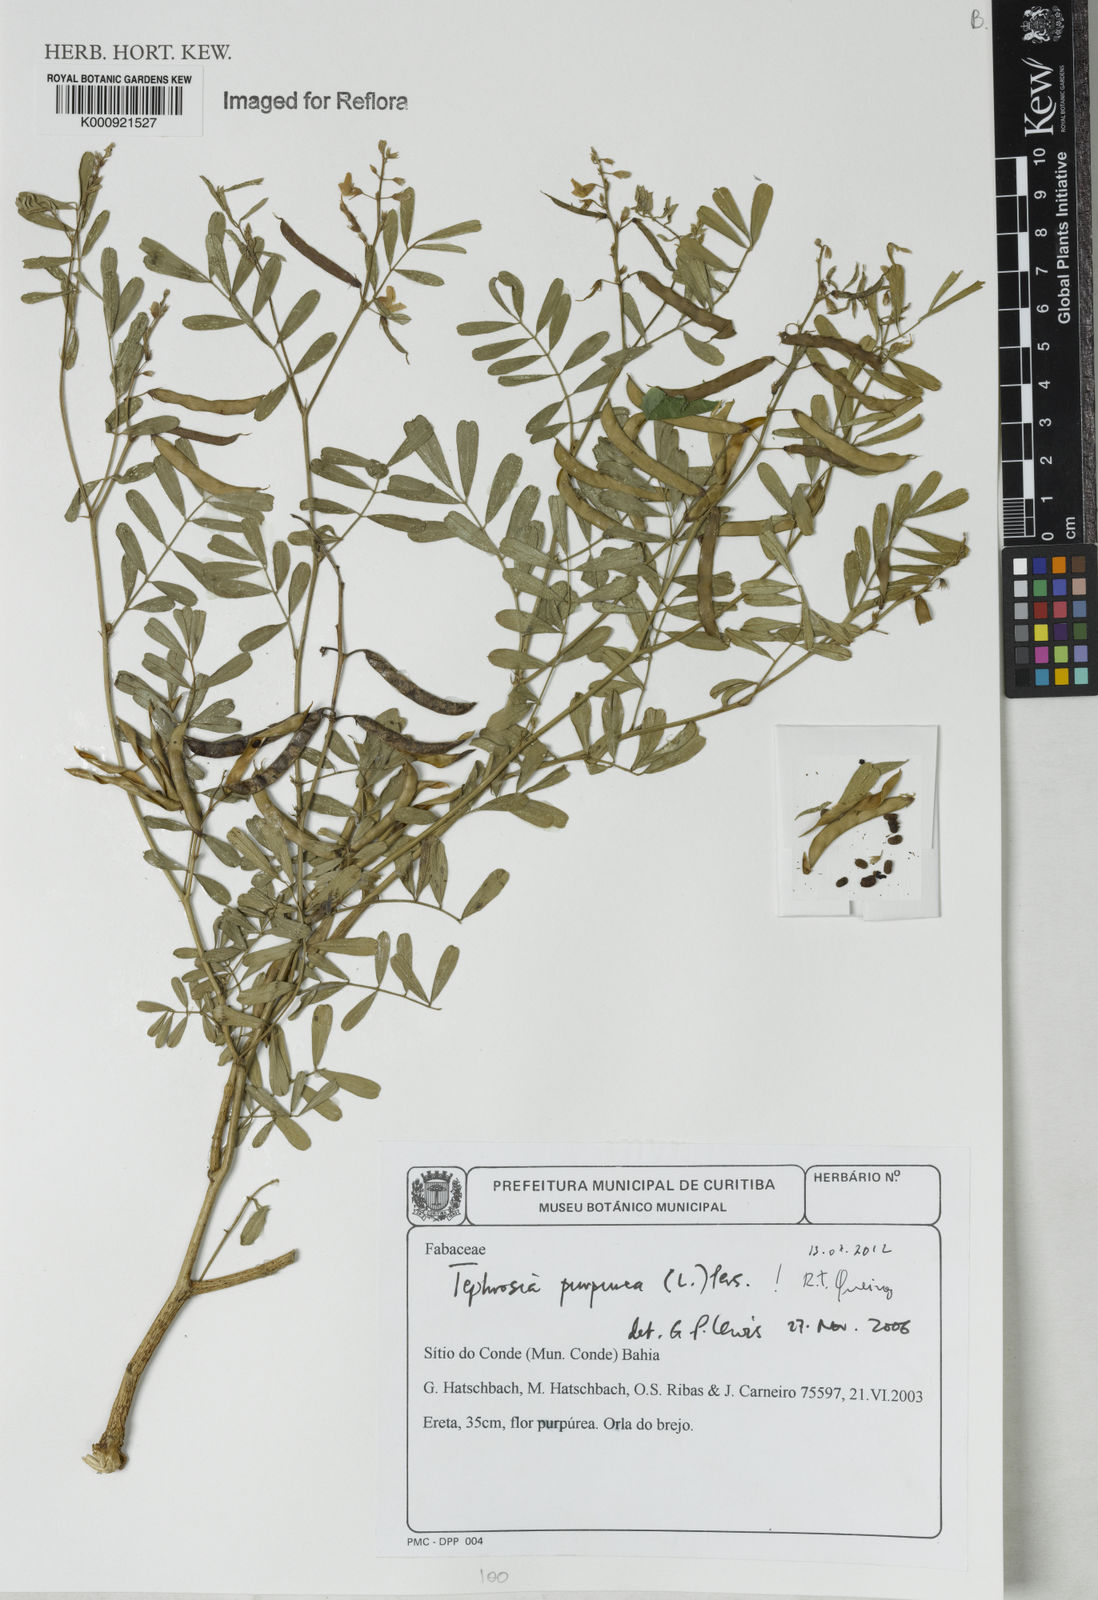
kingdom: Plantae
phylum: Tracheophyta
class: Magnoliopsida
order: Fabales
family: Fabaceae
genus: Tephrosia
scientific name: Tephrosia purpurea
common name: Fishpoison
